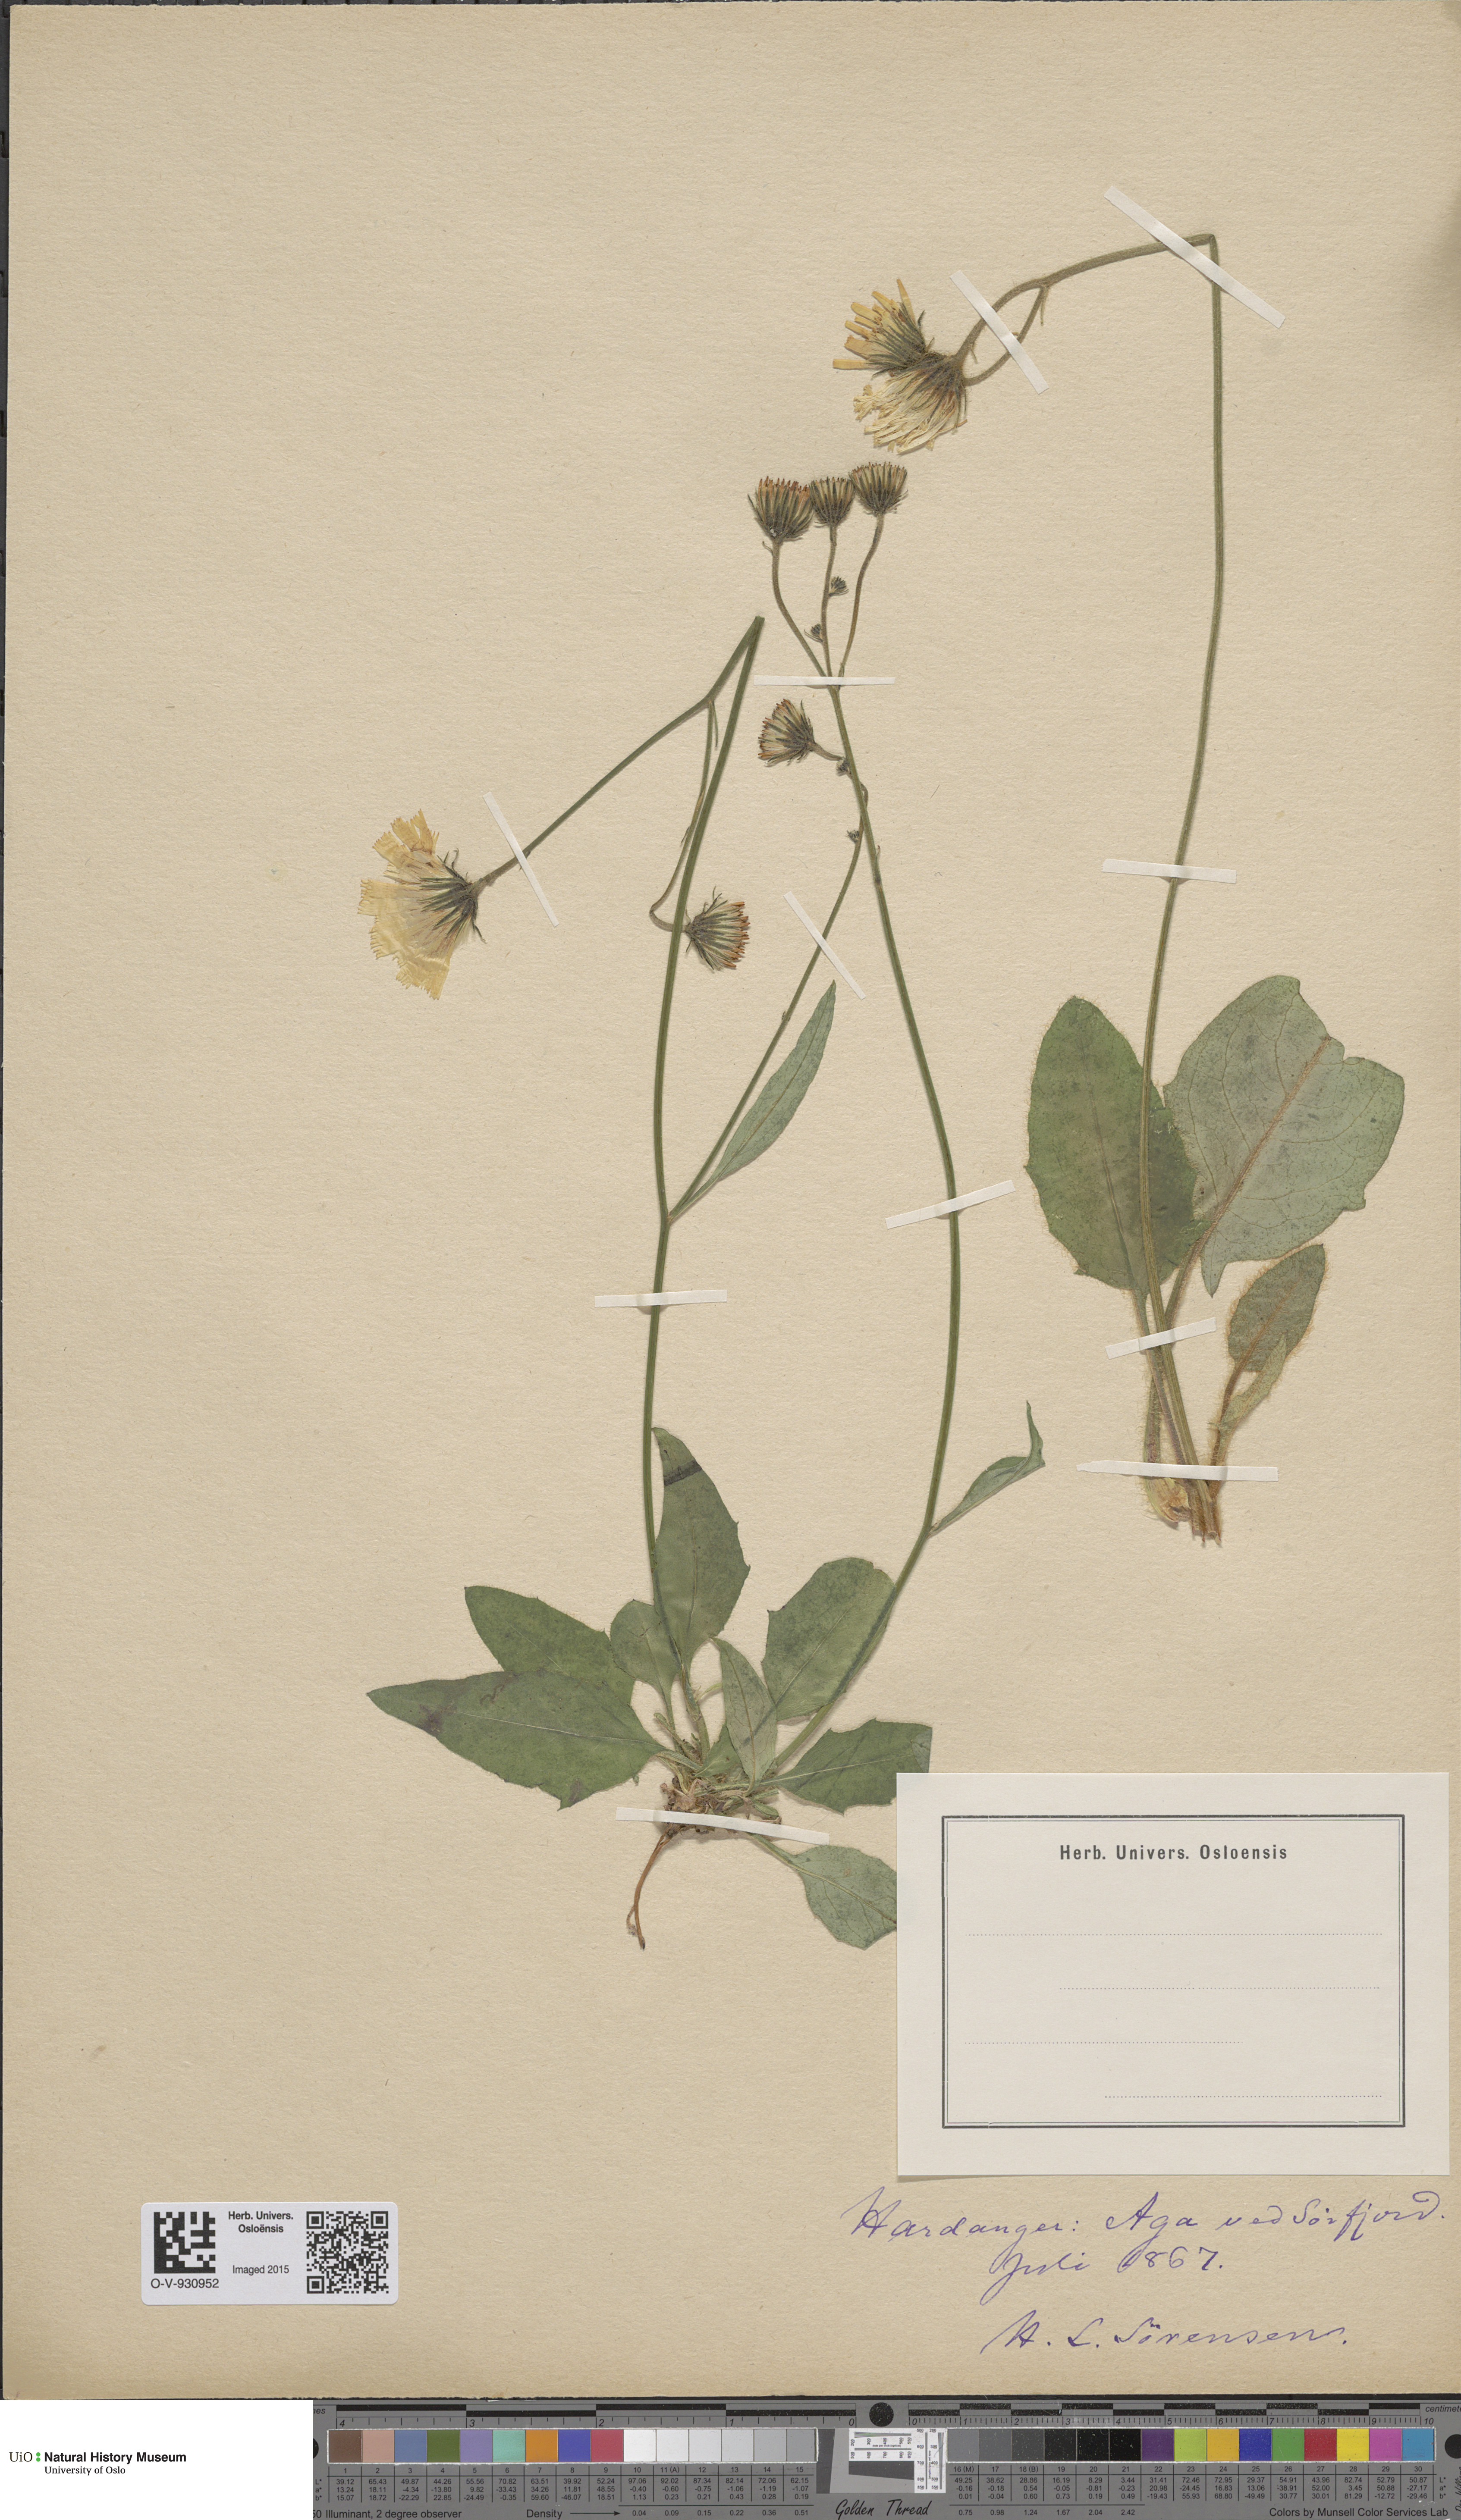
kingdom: Plantae
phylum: Tracheophyta
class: Magnoliopsida
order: Asterales
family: Asteraceae
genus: Hieracium
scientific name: Hieracium saxifragum
